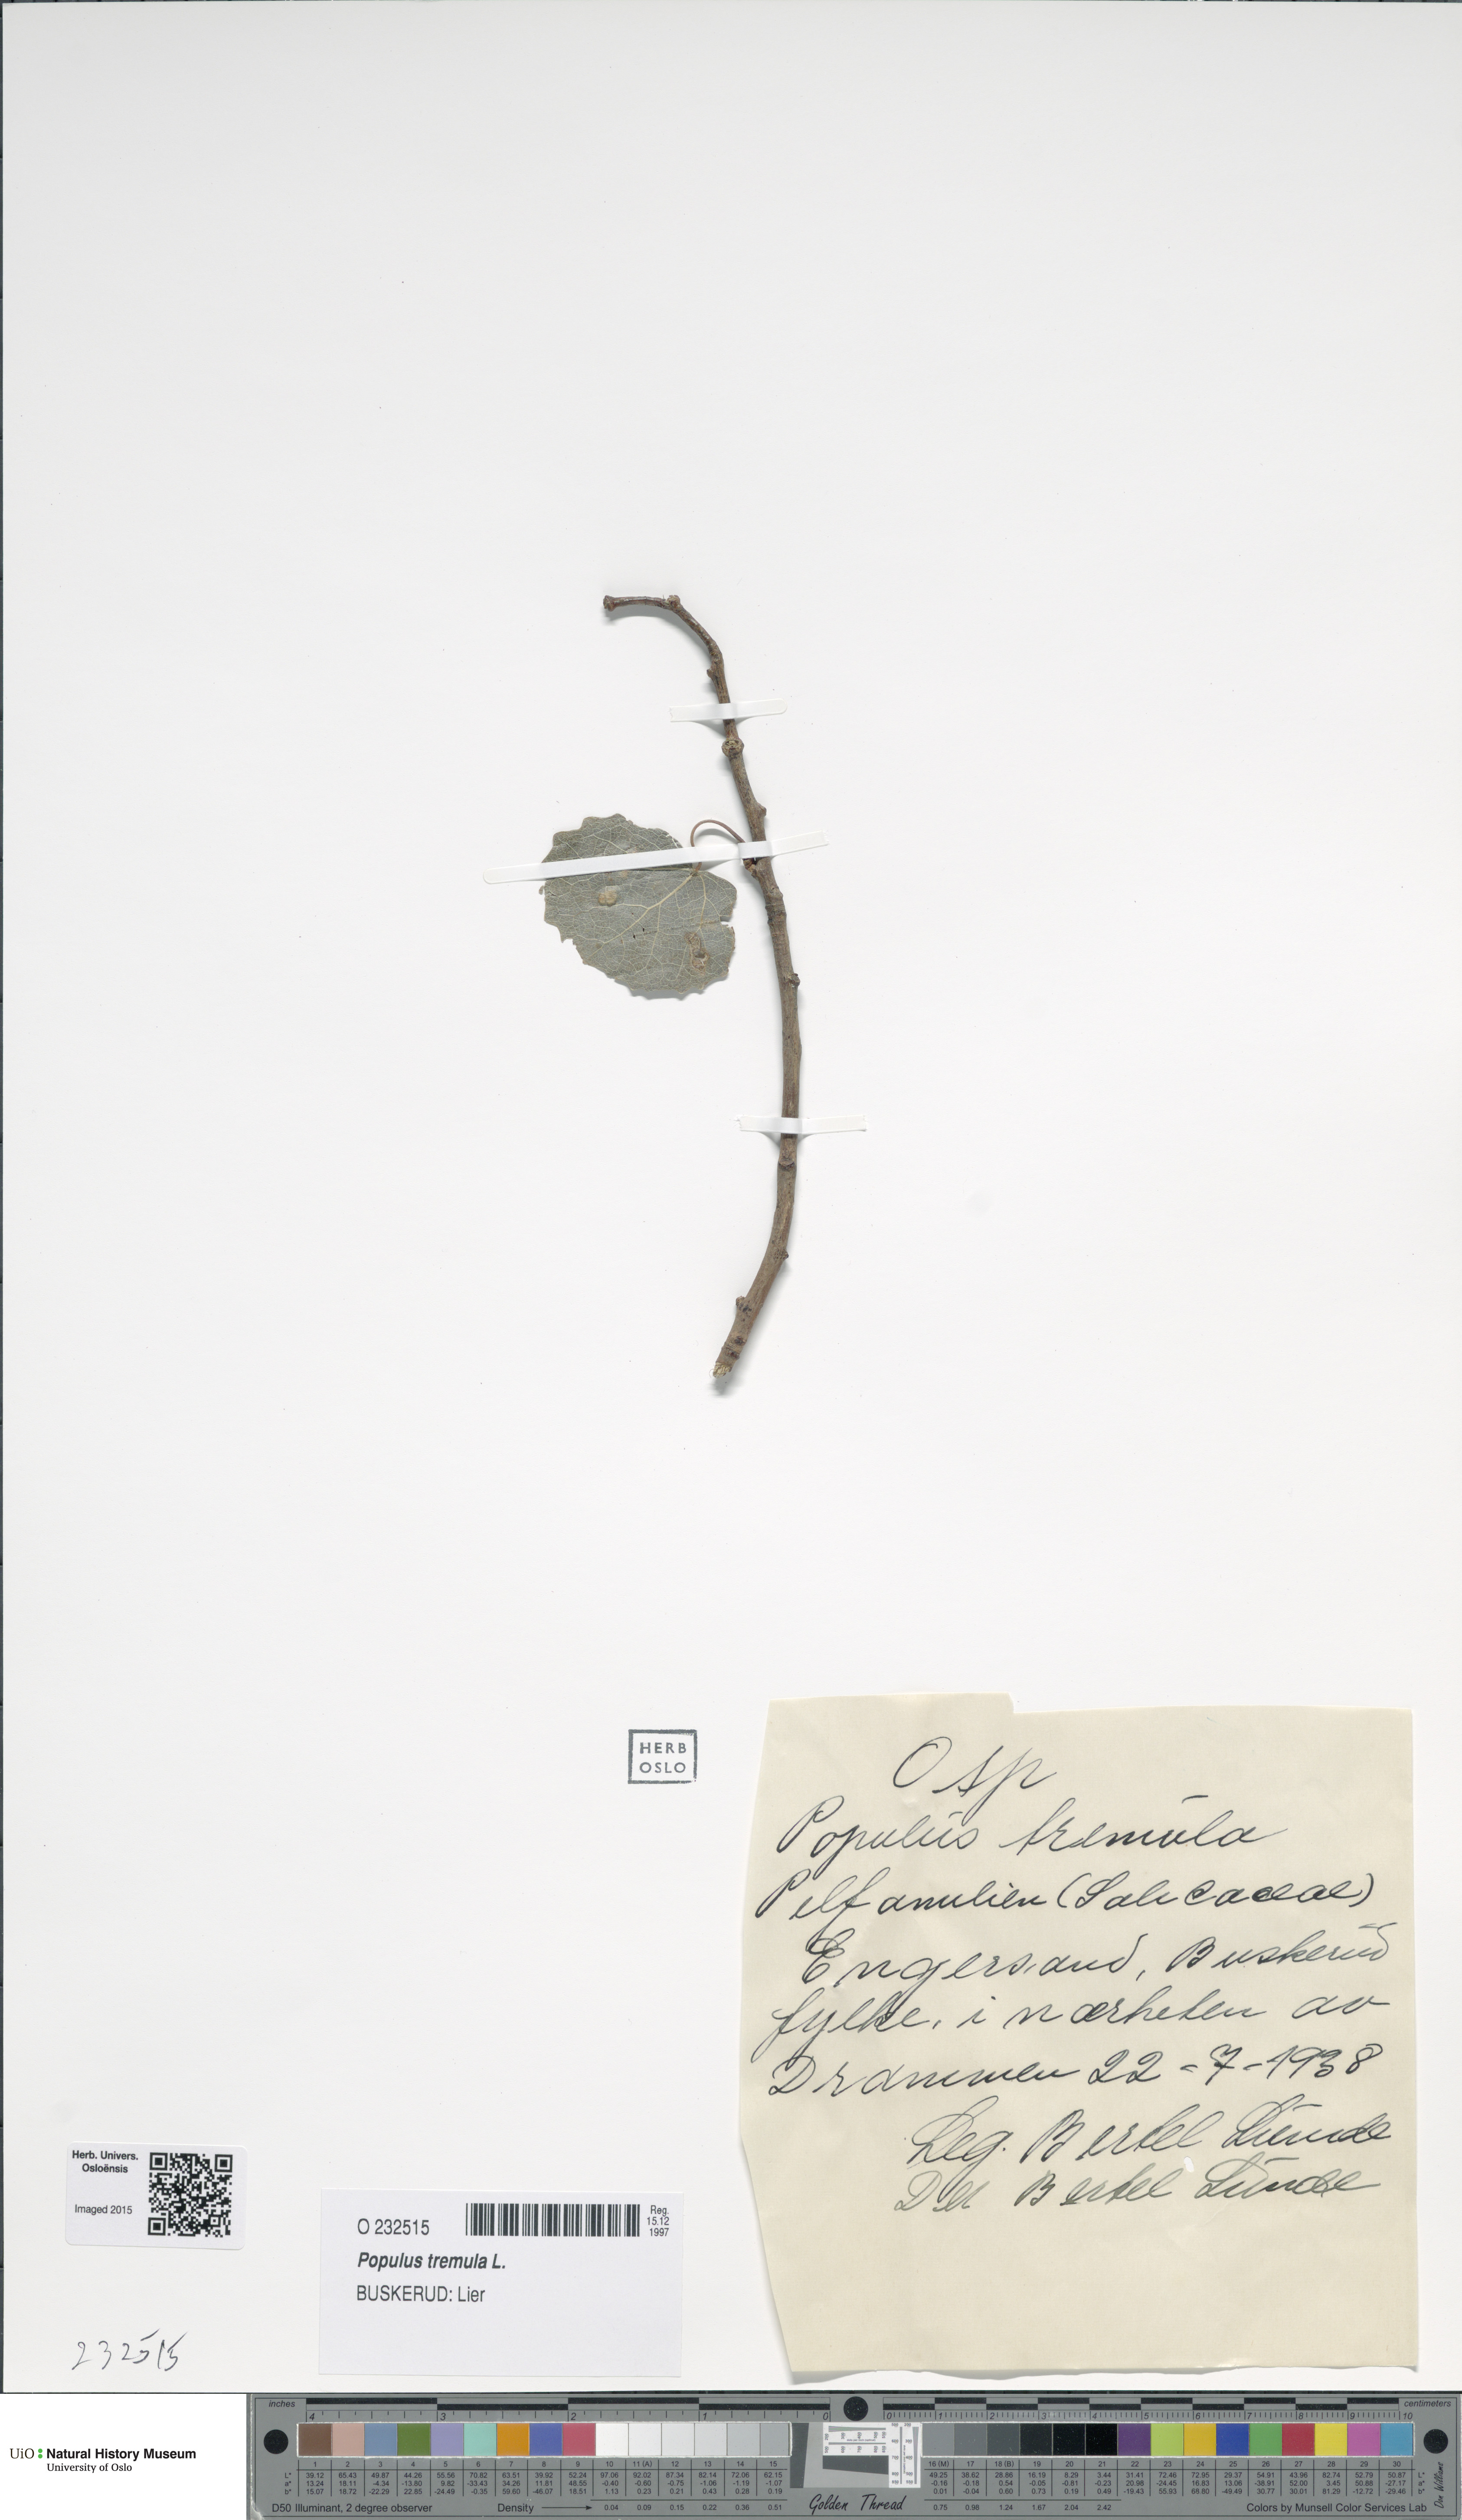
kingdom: Plantae
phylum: Tracheophyta
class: Magnoliopsida
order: Malpighiales
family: Salicaceae
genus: Populus
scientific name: Populus tremula
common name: European aspen
